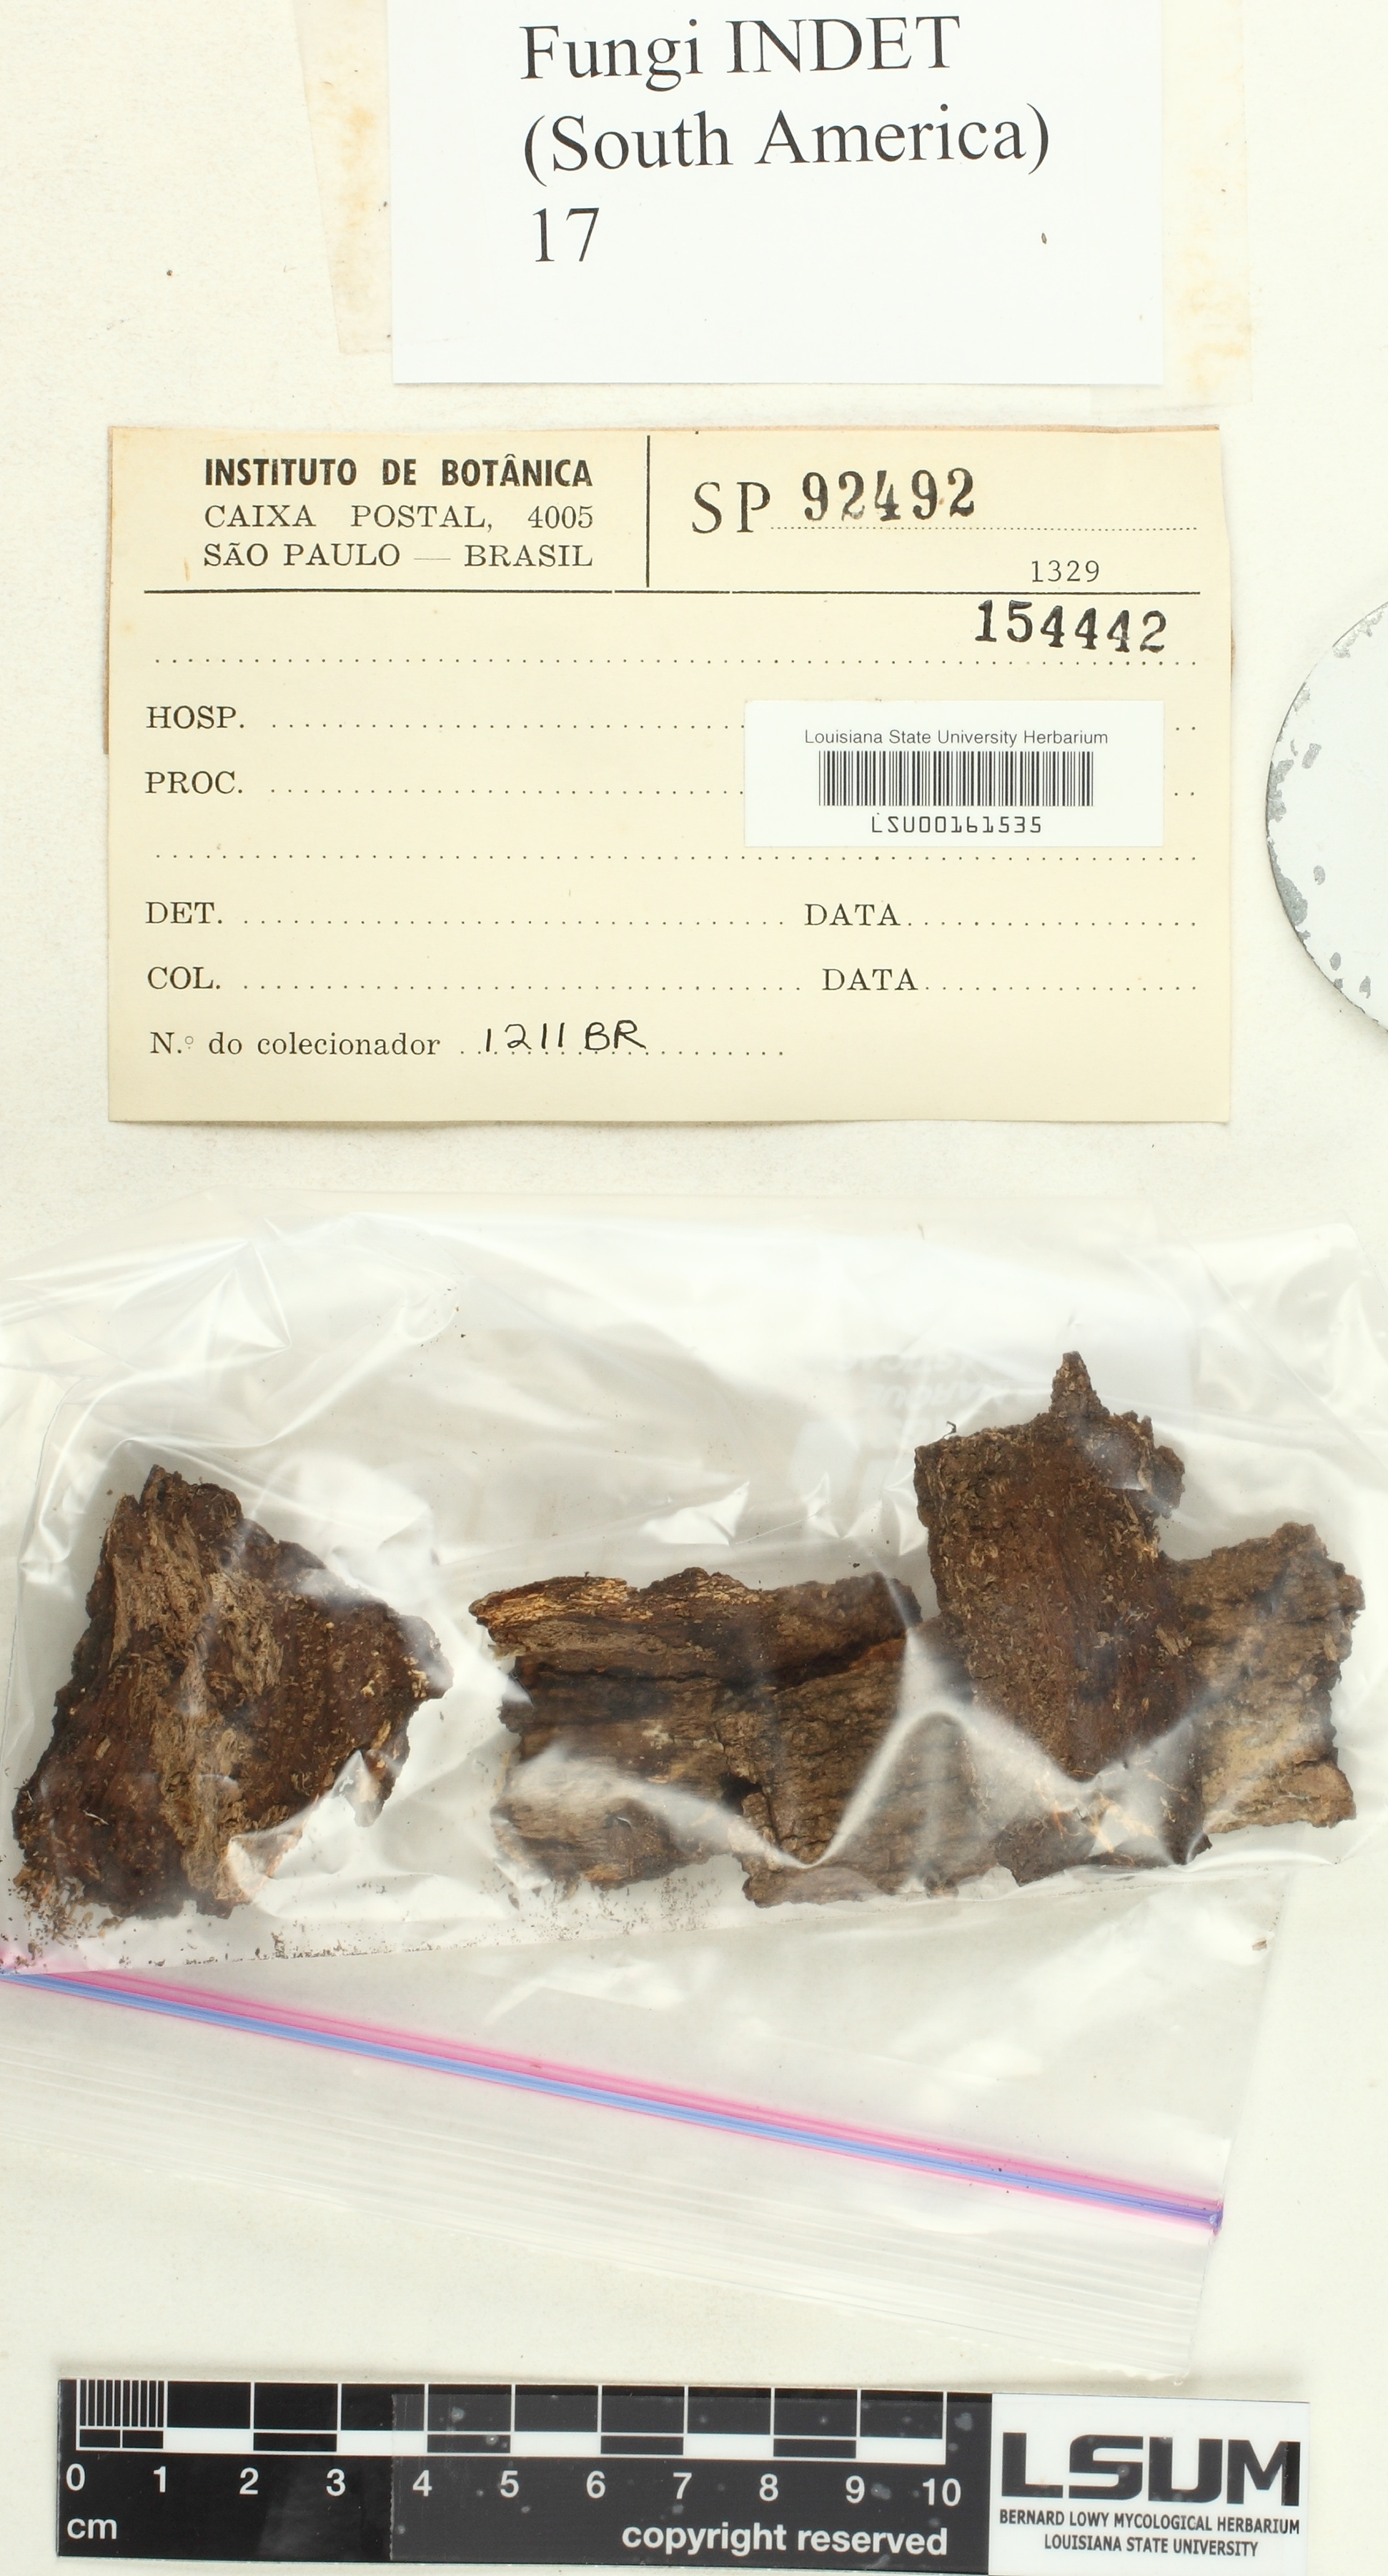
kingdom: Fungi
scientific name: Fungi
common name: Fungi
